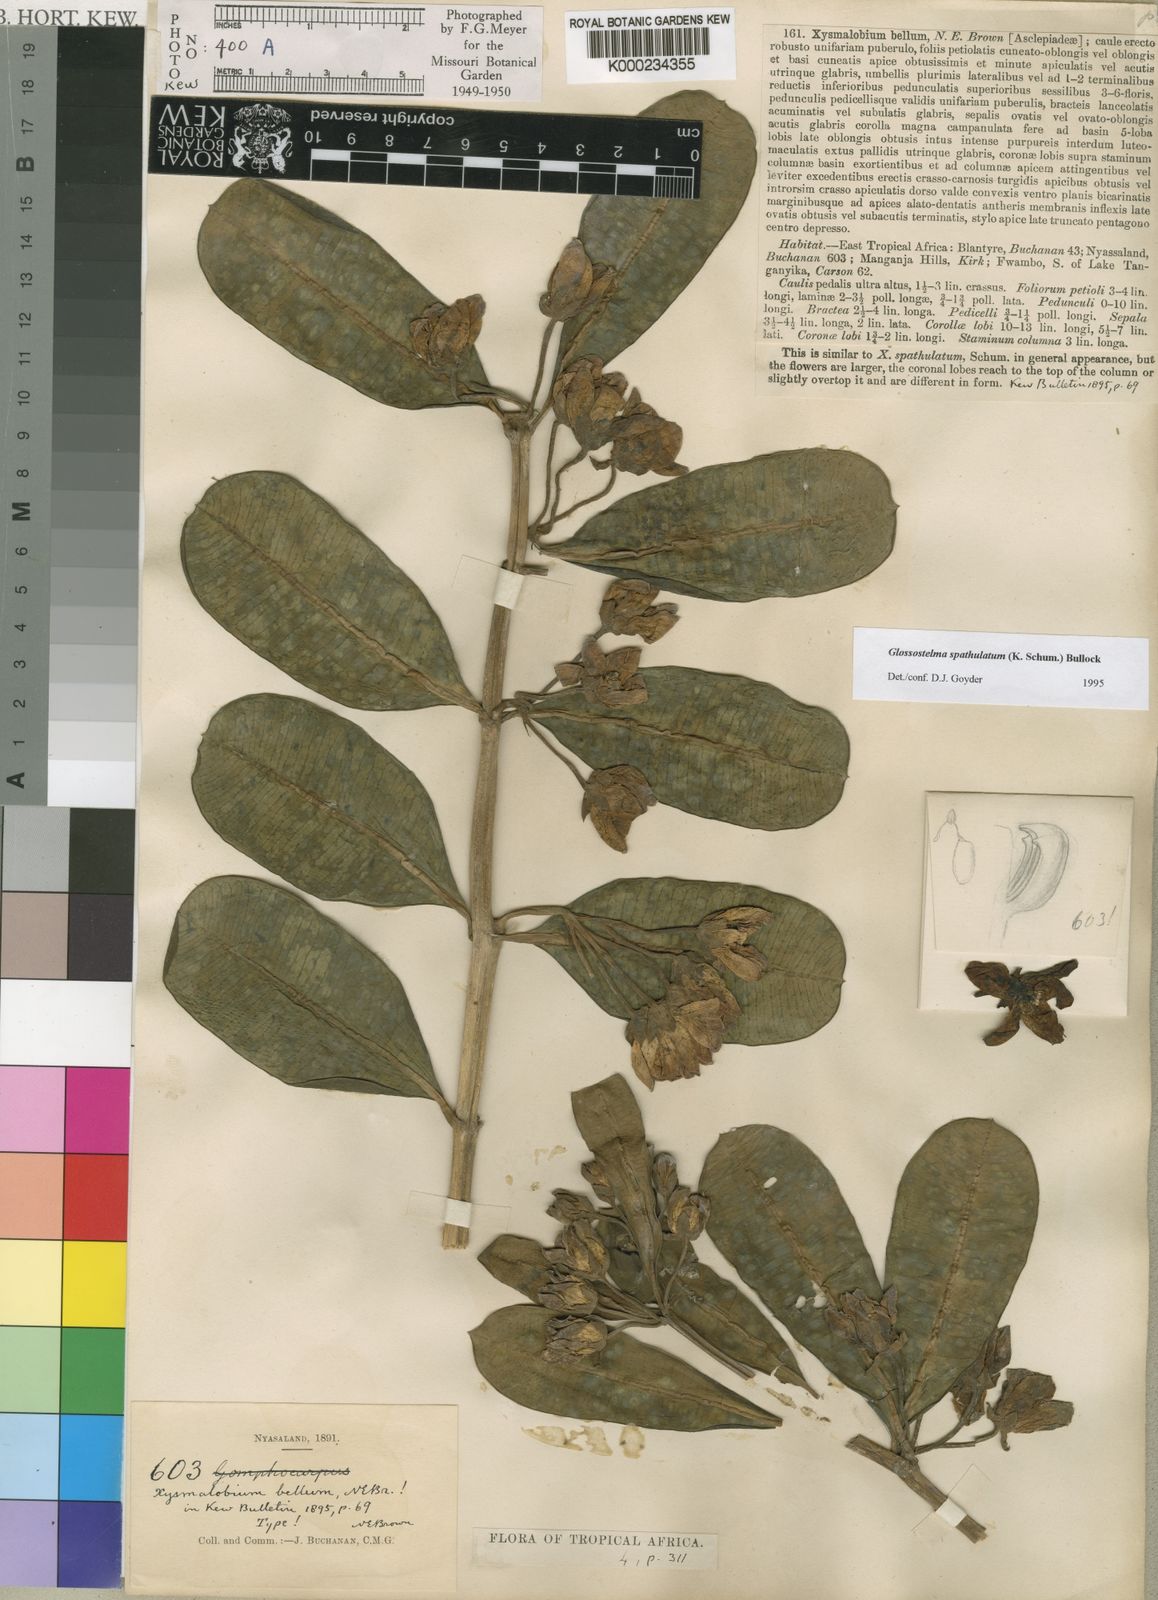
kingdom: Plantae
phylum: Tracheophyta
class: Magnoliopsida
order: Gentianales
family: Apocynaceae
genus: Glossostelma
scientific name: Glossostelma spathulatum
